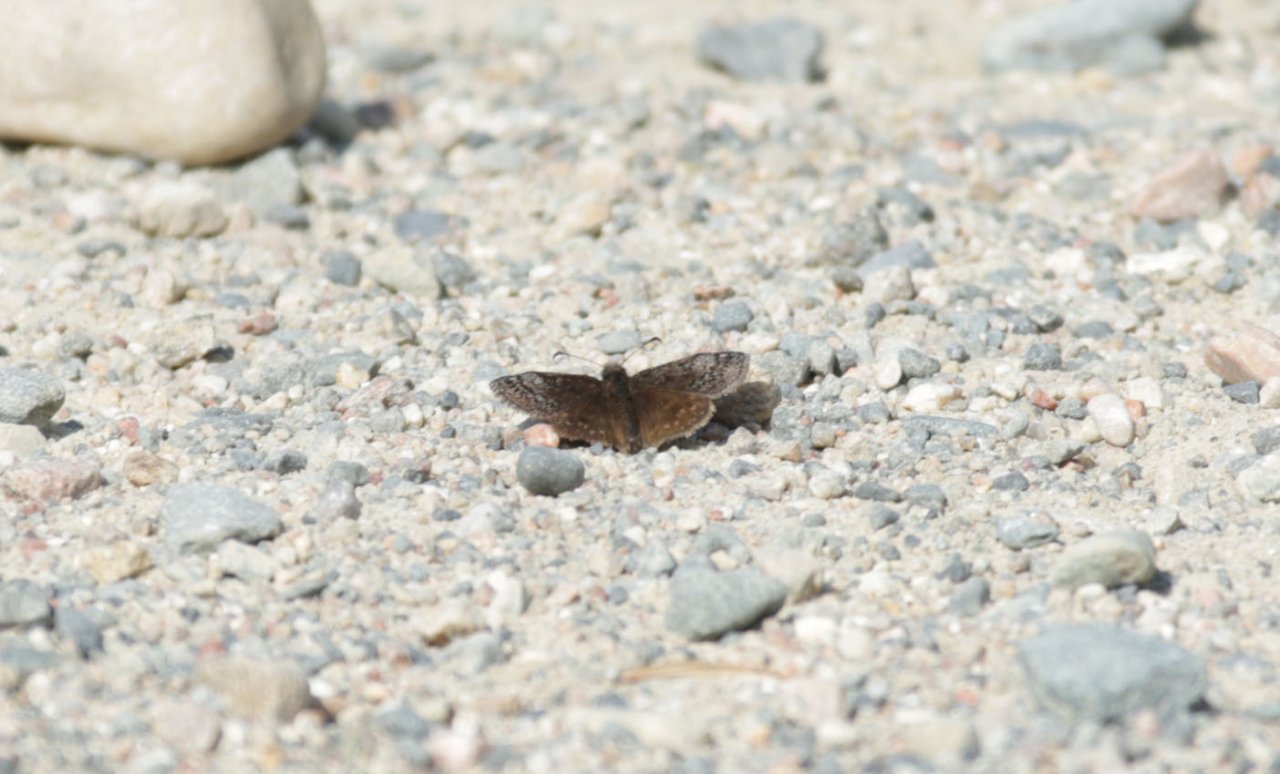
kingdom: Animalia
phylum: Arthropoda
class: Insecta
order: Lepidoptera
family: Hesperiidae
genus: Erynnis
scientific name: Erynnis icelus
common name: Dreamy Duskywing
